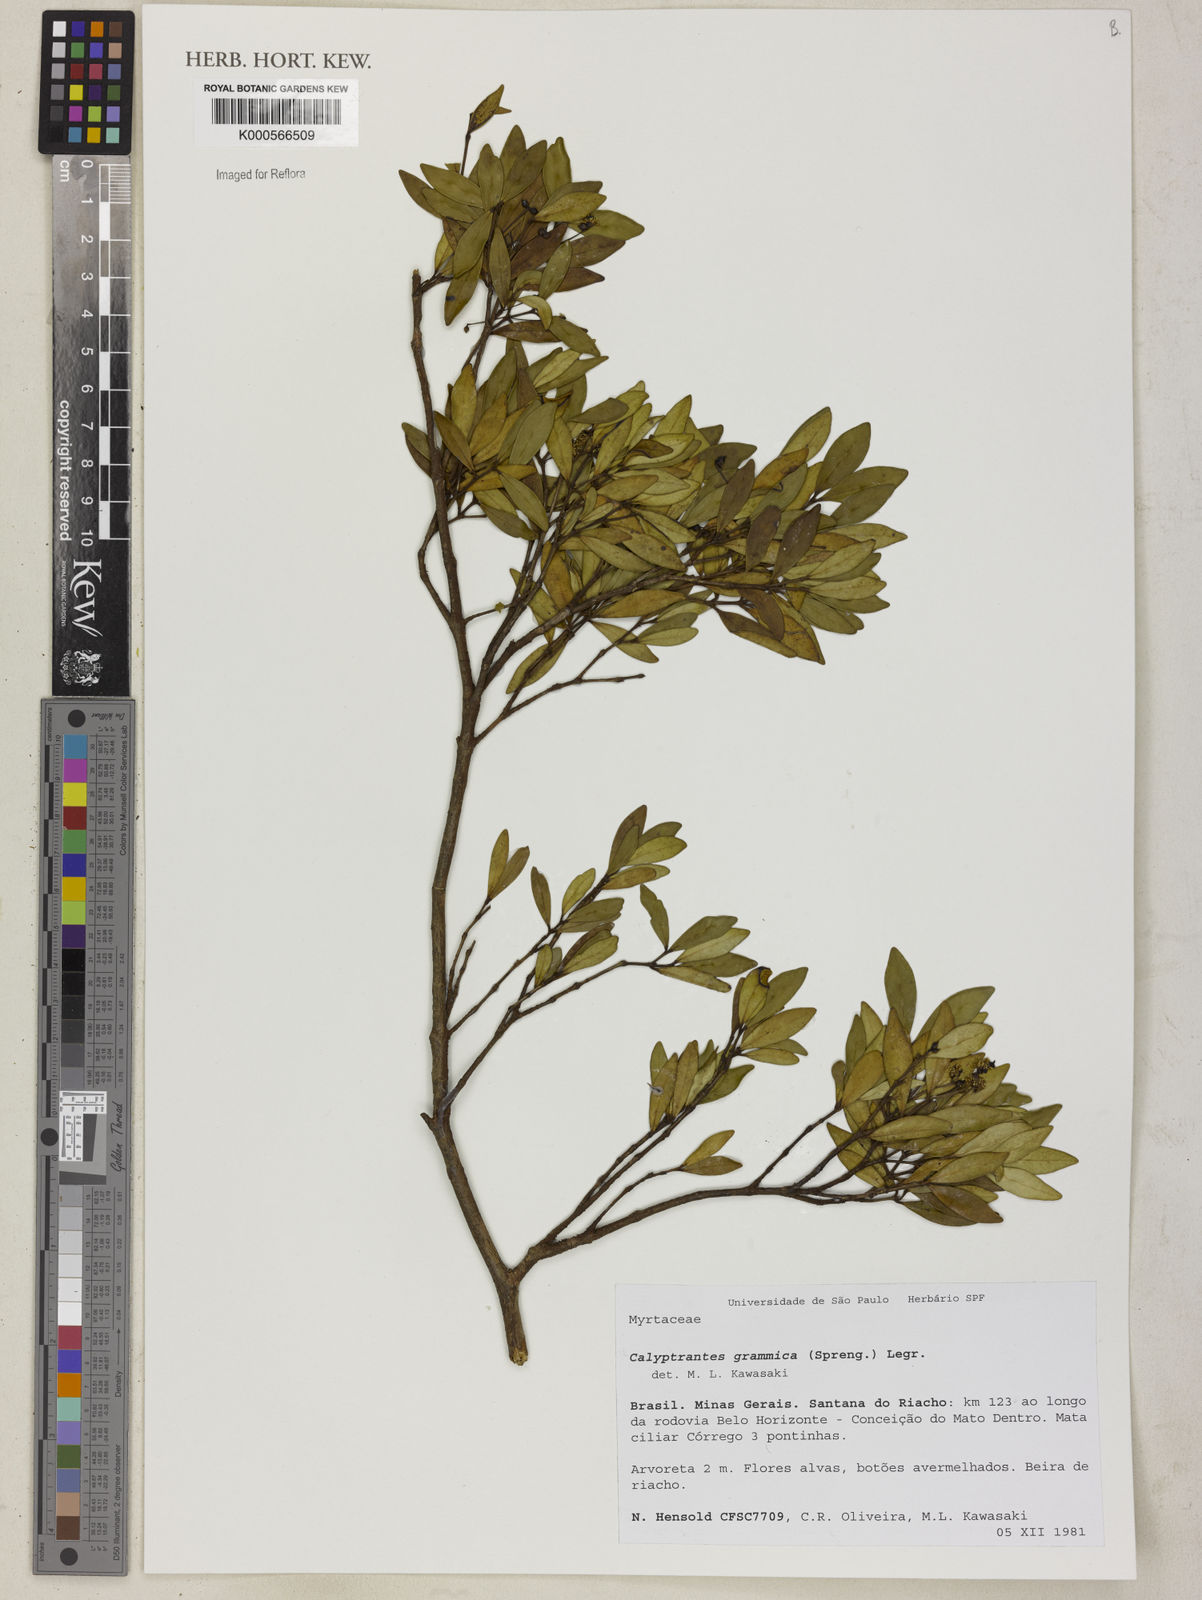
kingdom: Plantae
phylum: Tracheophyta
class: Magnoliopsida
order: Myrtales
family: Myrtaceae
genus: Myrcia
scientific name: Myrcia grammica
